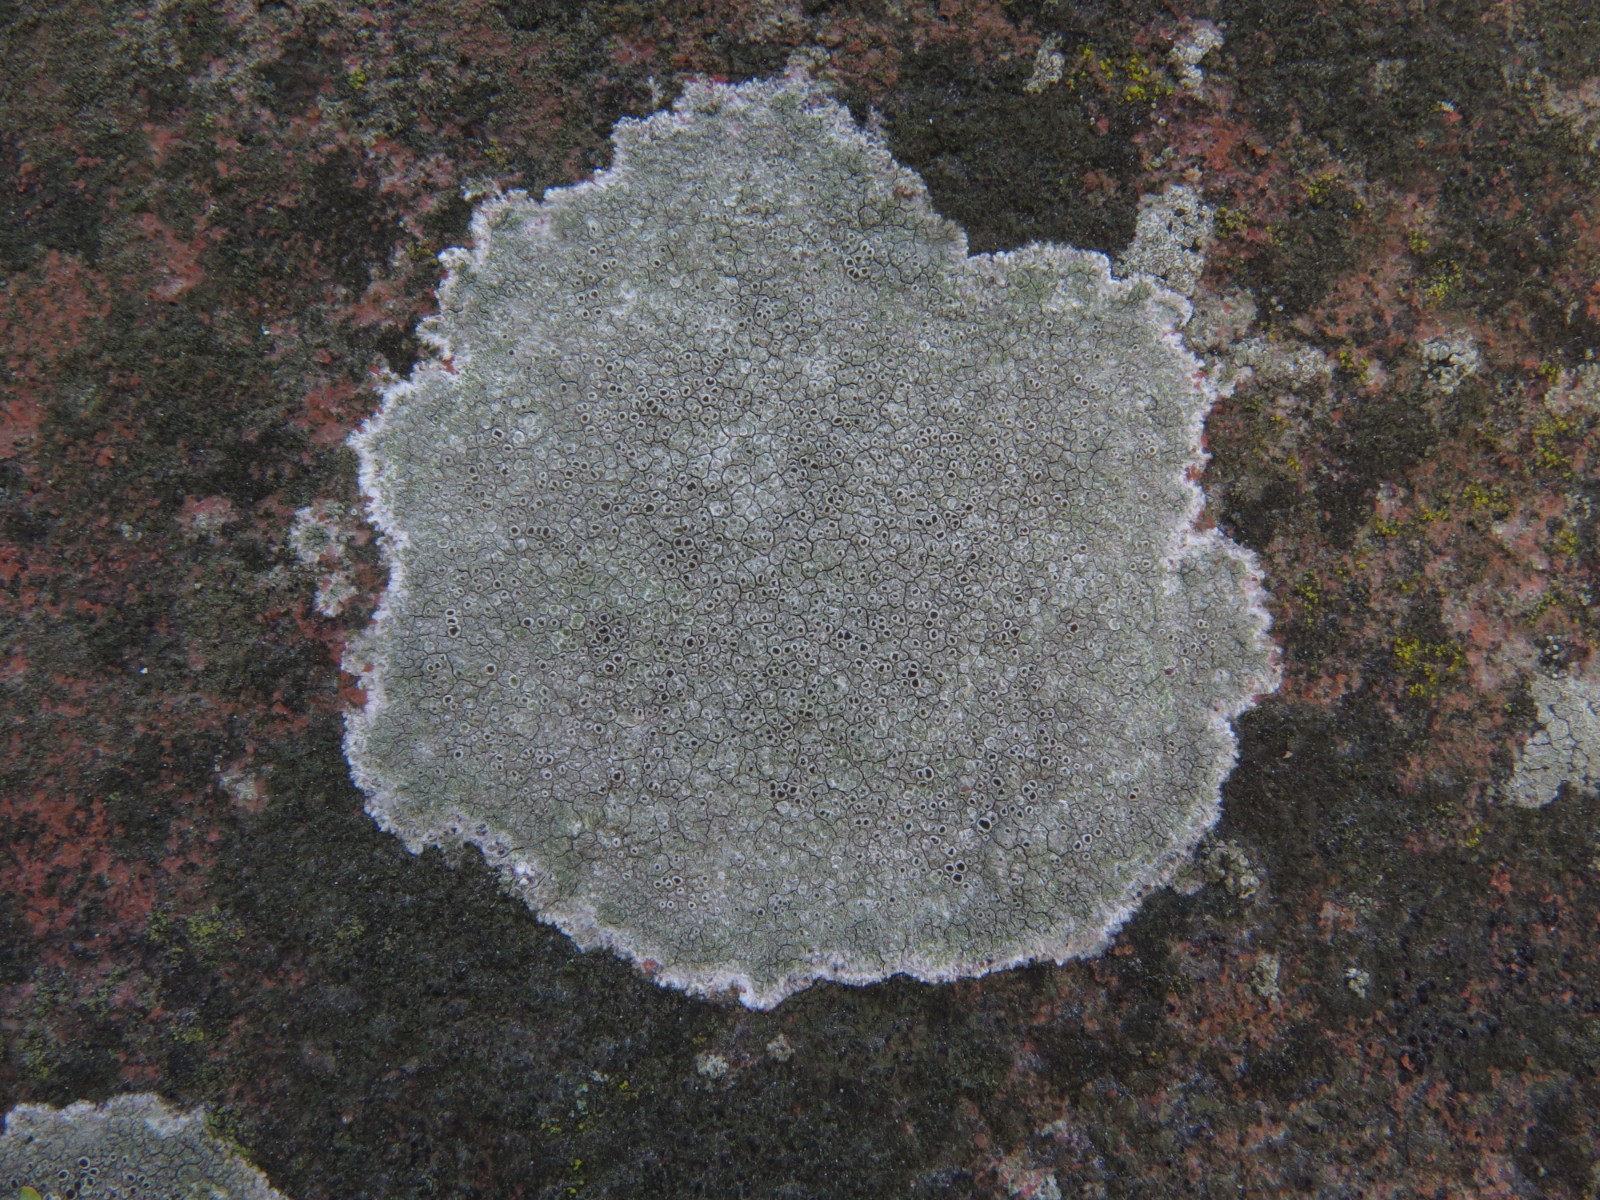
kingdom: Fungi
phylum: Ascomycota
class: Lecanoromycetes
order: Lecanorales
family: Lecanoraceae
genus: Lecanora
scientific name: Lecanora campestris
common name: mur-kantskivelav
